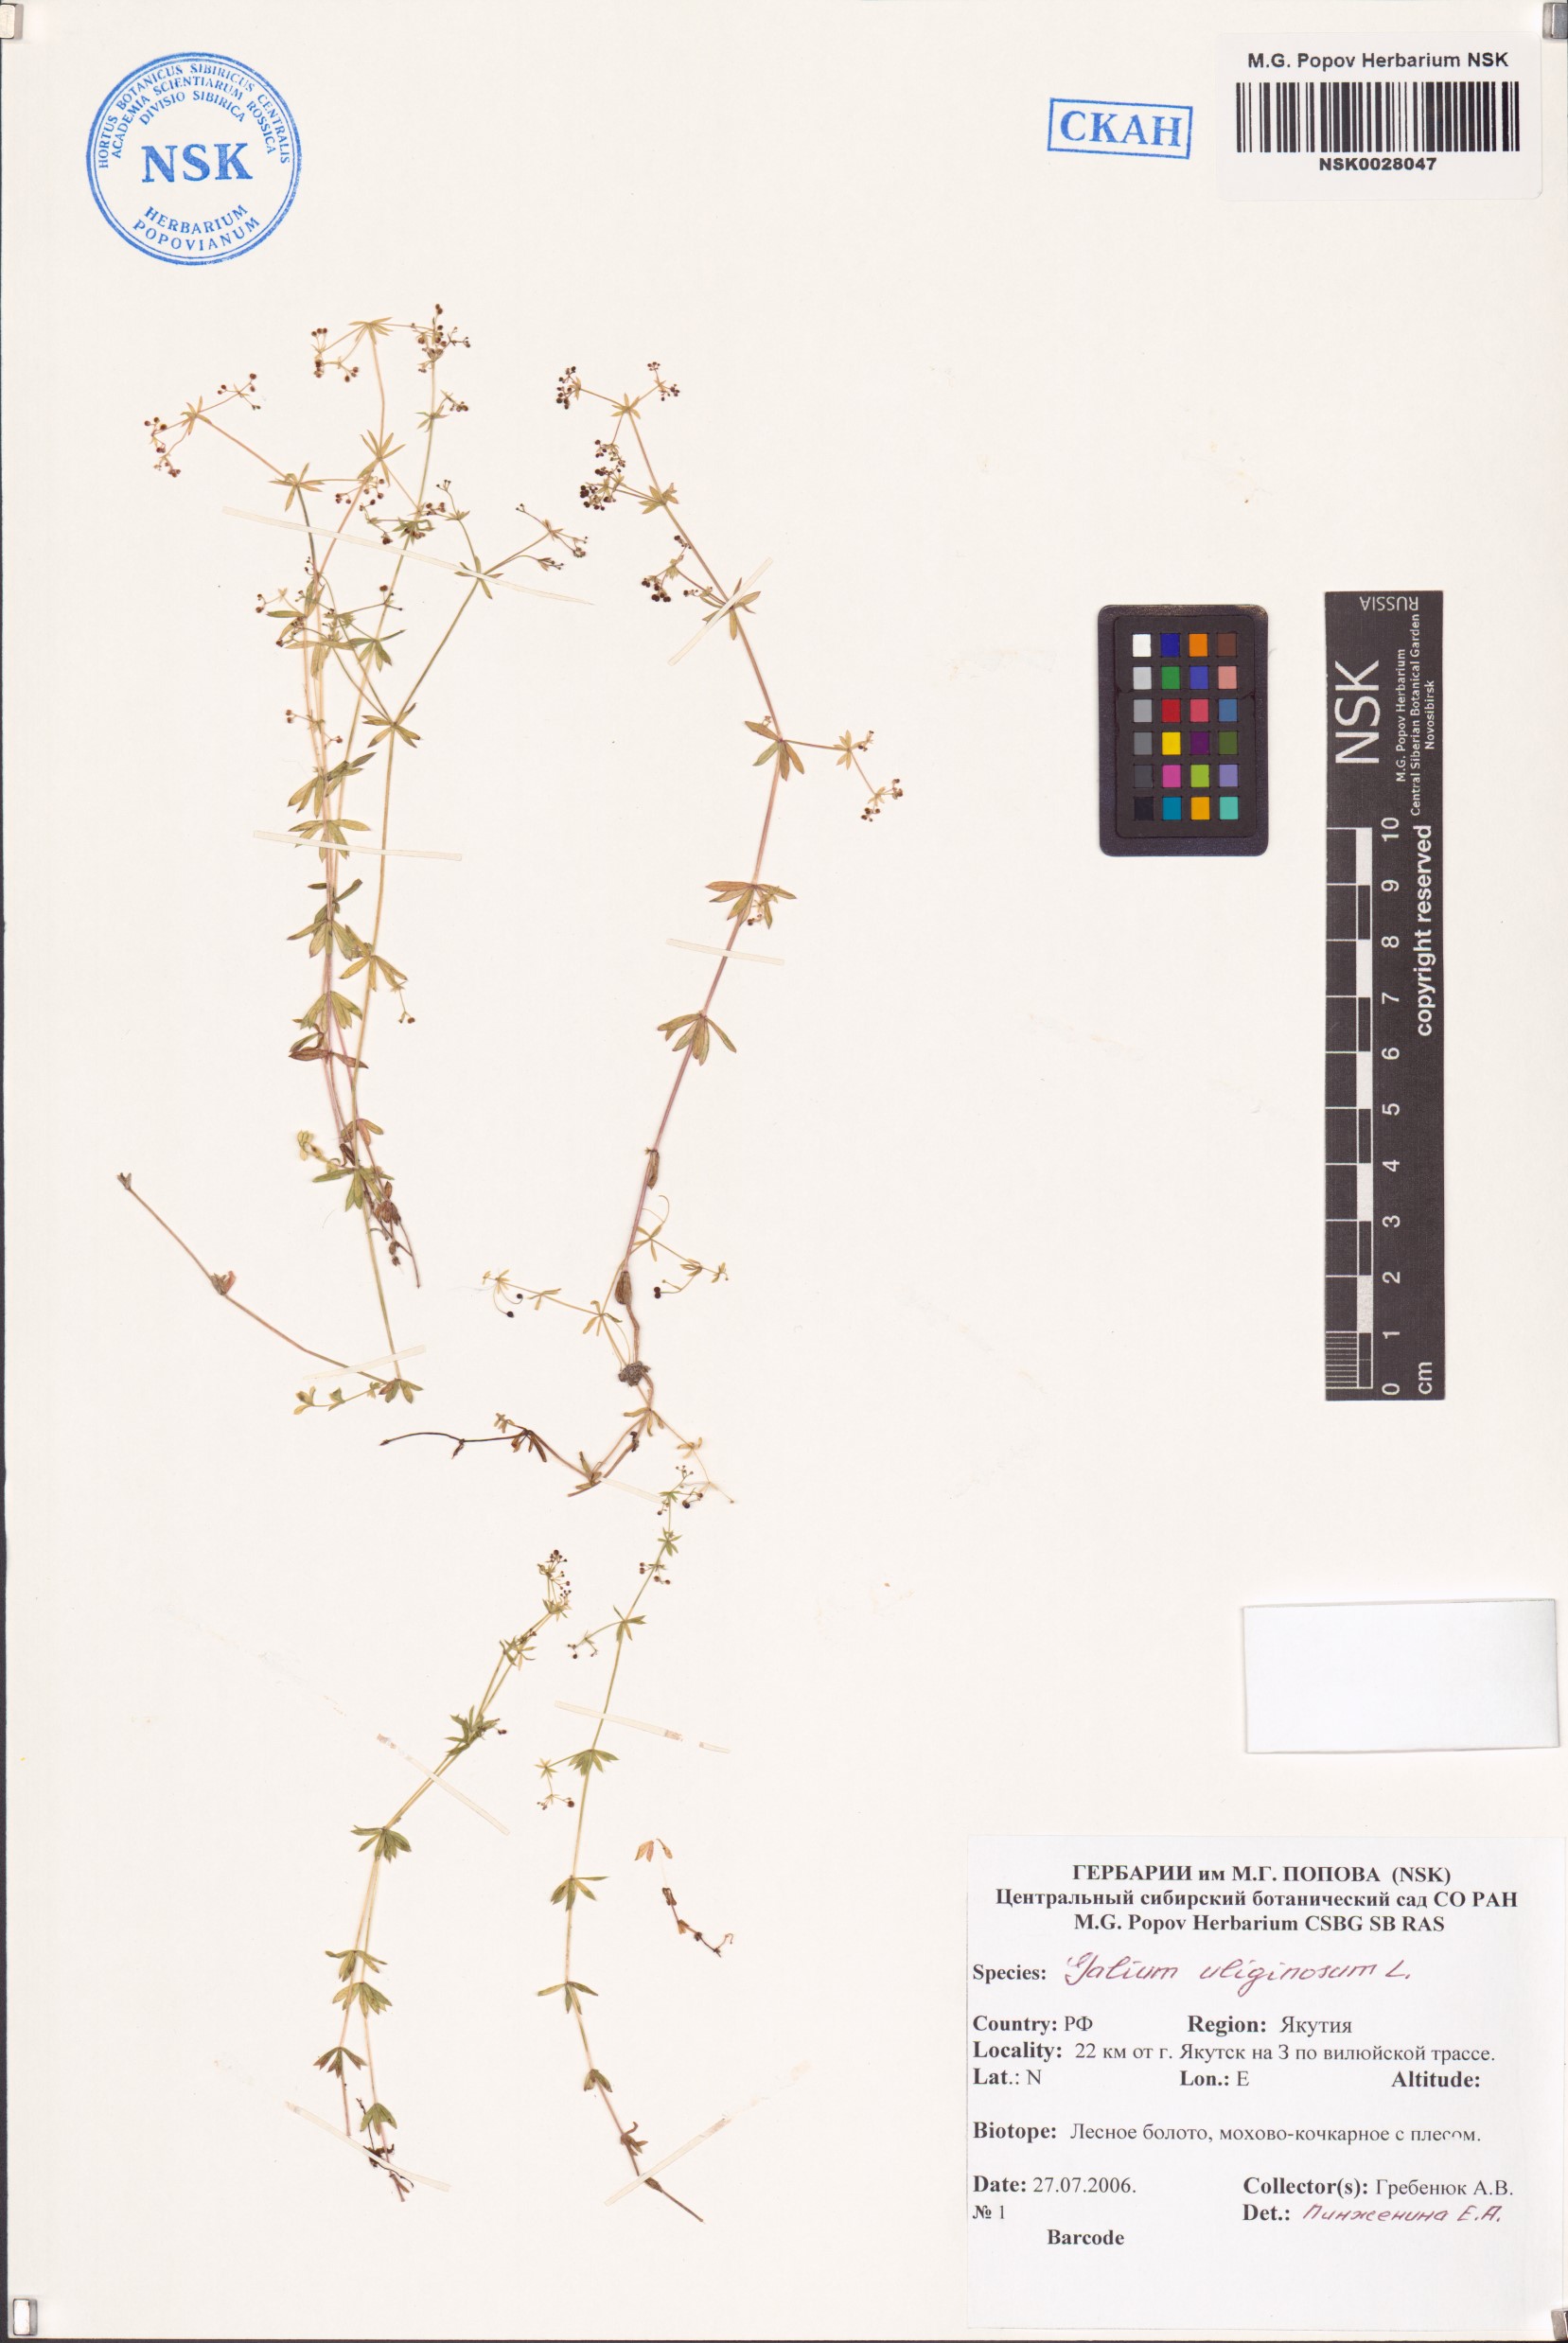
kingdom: Plantae
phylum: Tracheophyta
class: Magnoliopsida
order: Gentianales
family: Rubiaceae
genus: Galium
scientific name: Galium uliginosum
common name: Fen bedstraw
